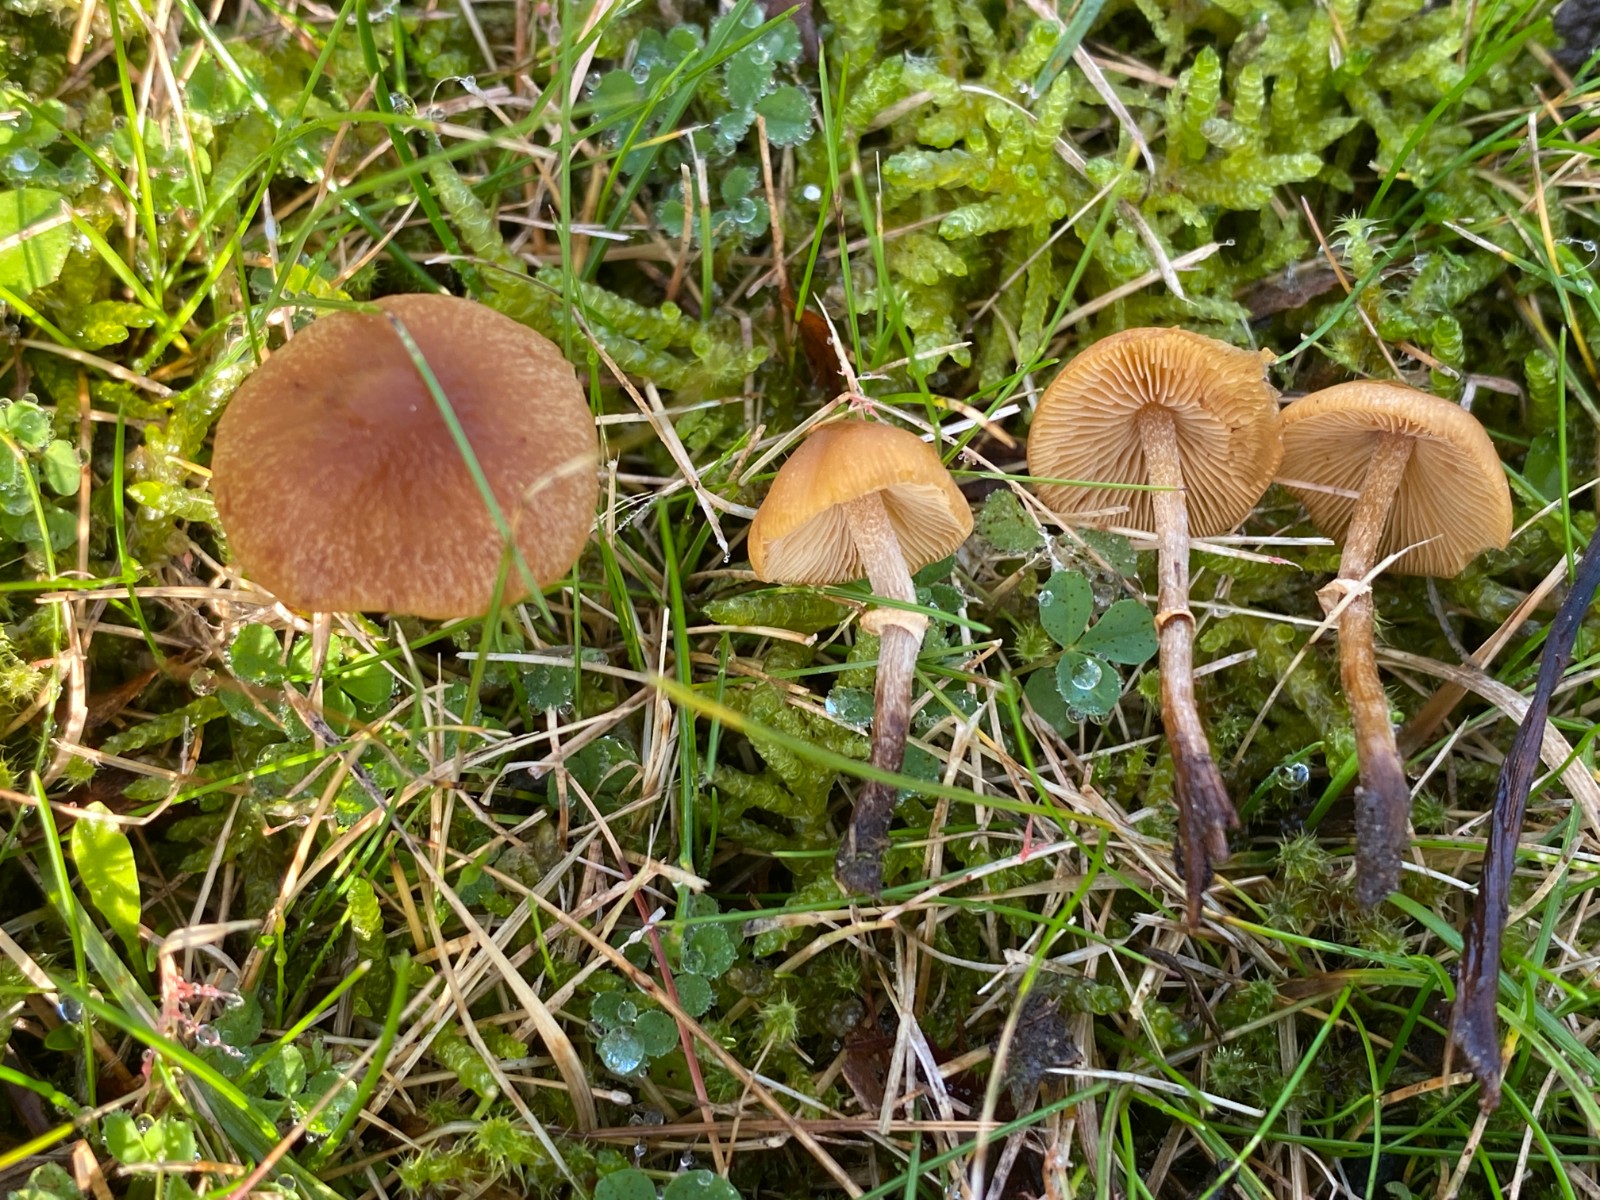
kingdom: Fungi
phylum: Basidiomycota
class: Agaricomycetes
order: Agaricales
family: Bolbitiaceae
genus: Pholiotina
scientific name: Pholiotina teneroides
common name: tosporet dansehat
